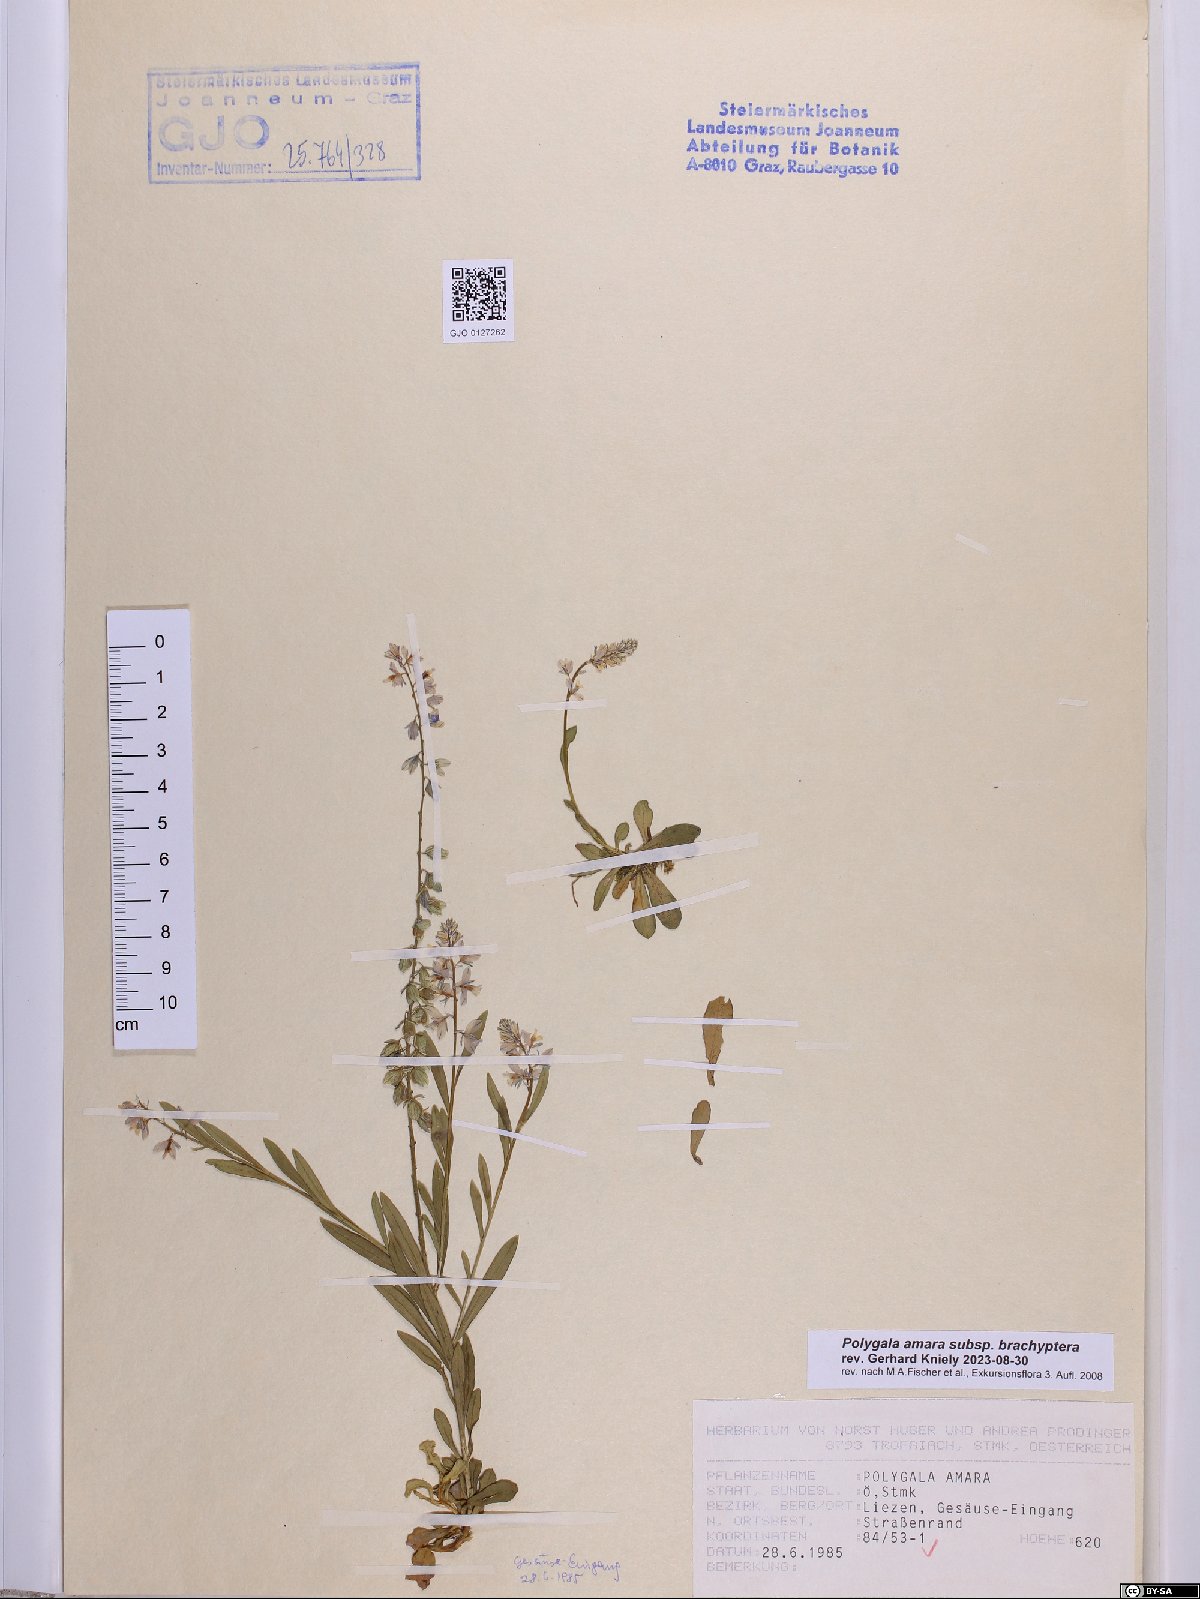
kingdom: Plantae
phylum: Tracheophyta
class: Magnoliopsida
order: Fabales
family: Polygalaceae
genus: Polygala
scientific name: Polygala amara
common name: Milkwort
